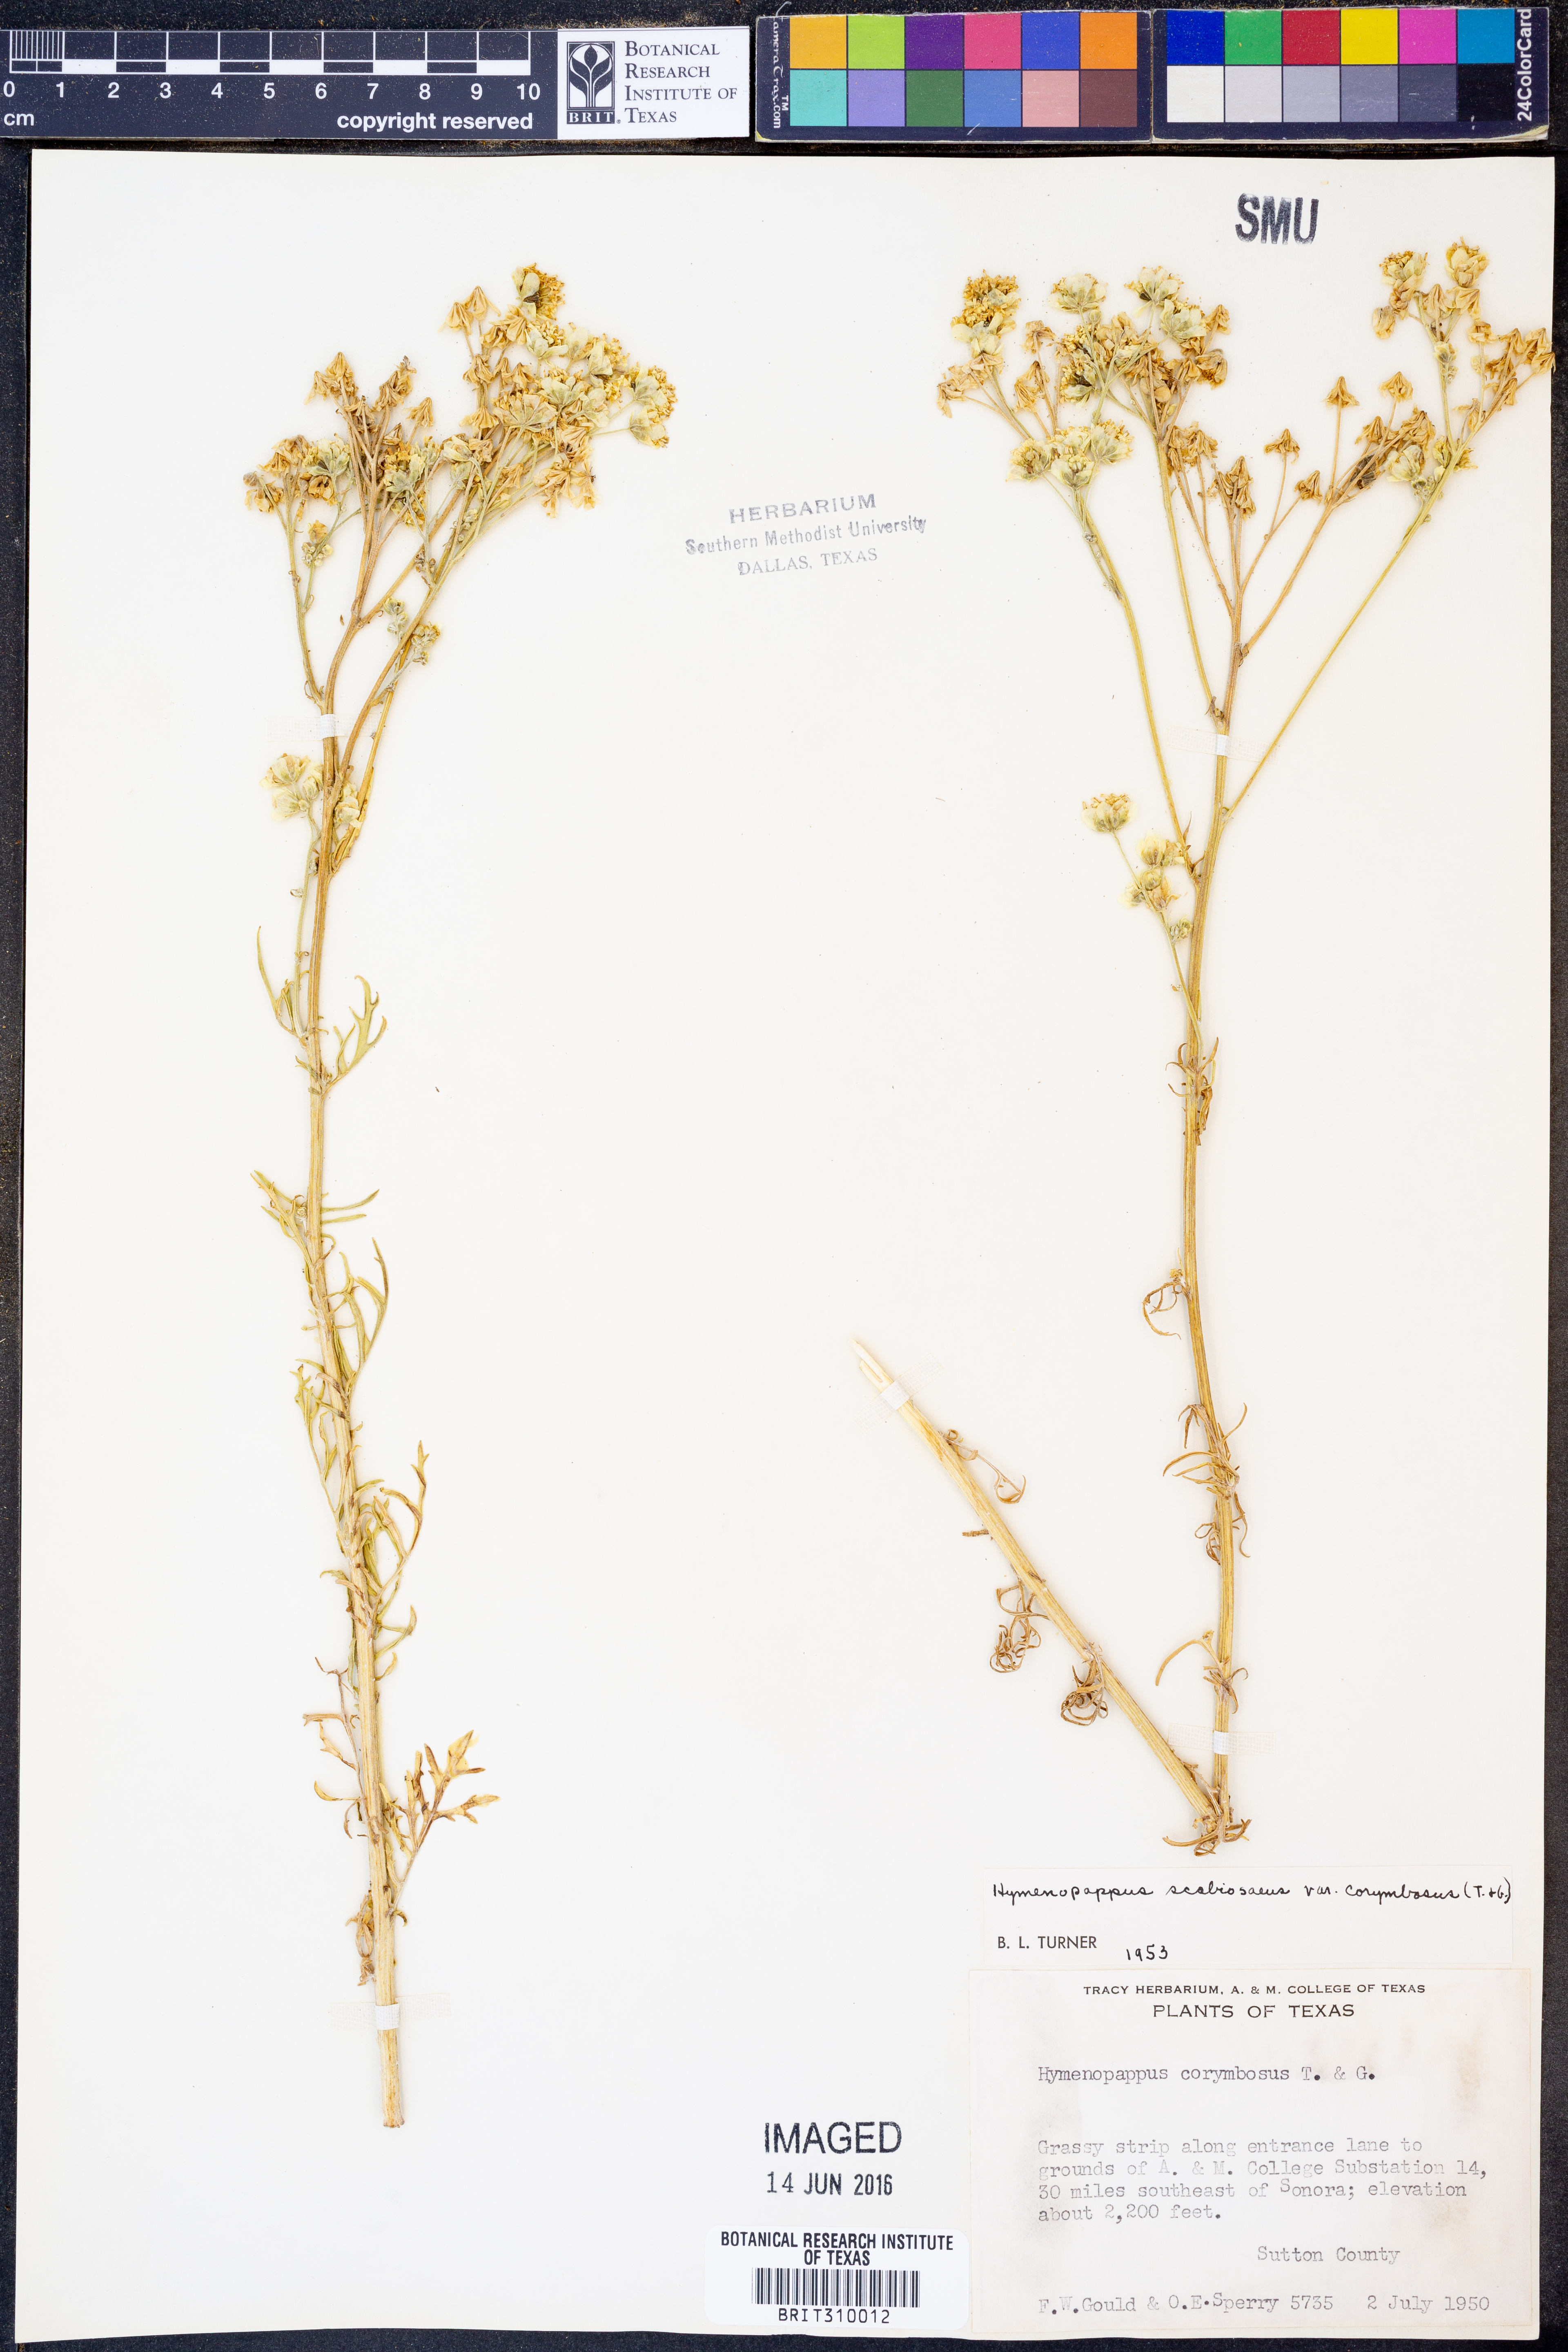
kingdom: Plantae
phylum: Tracheophyta
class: Magnoliopsida
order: Asterales
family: Asteraceae
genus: Hymenopappus
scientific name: Hymenopappus scabiosaeus
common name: Carolina woollywhite
